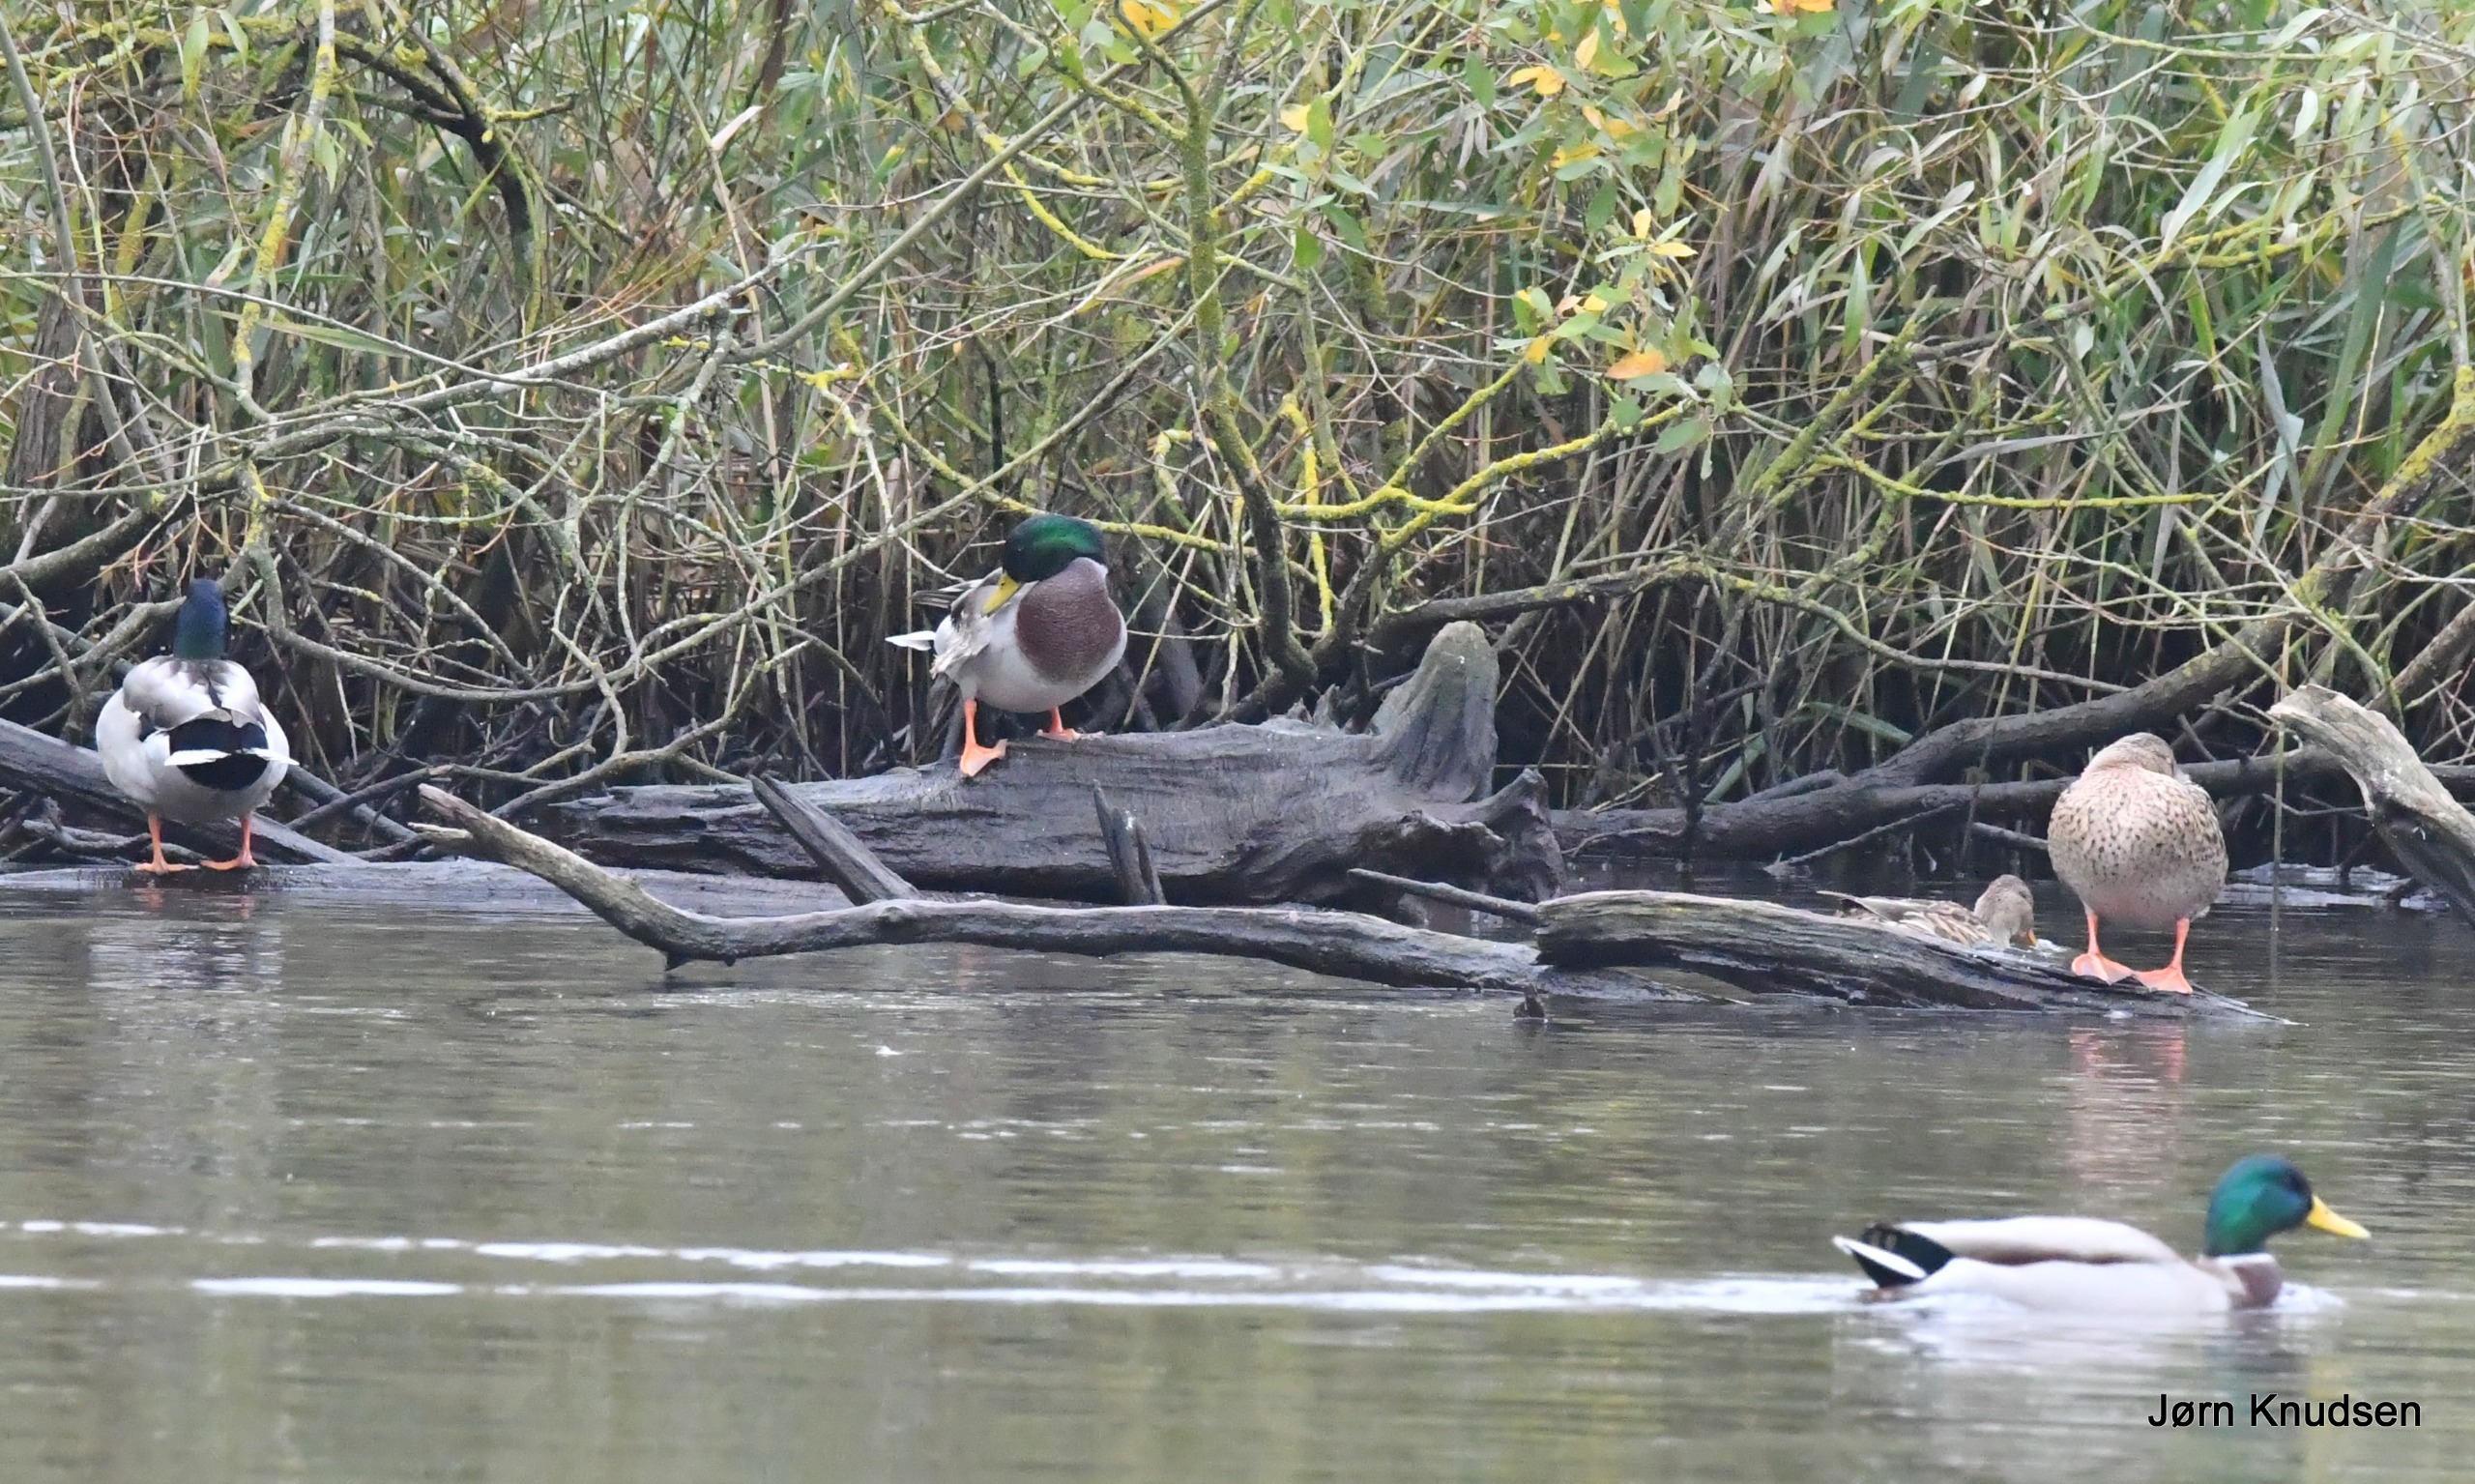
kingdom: Animalia
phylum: Chordata
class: Aves
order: Anseriformes
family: Anatidae
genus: Anas
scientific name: Anas platyrhynchos
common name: Gråand
